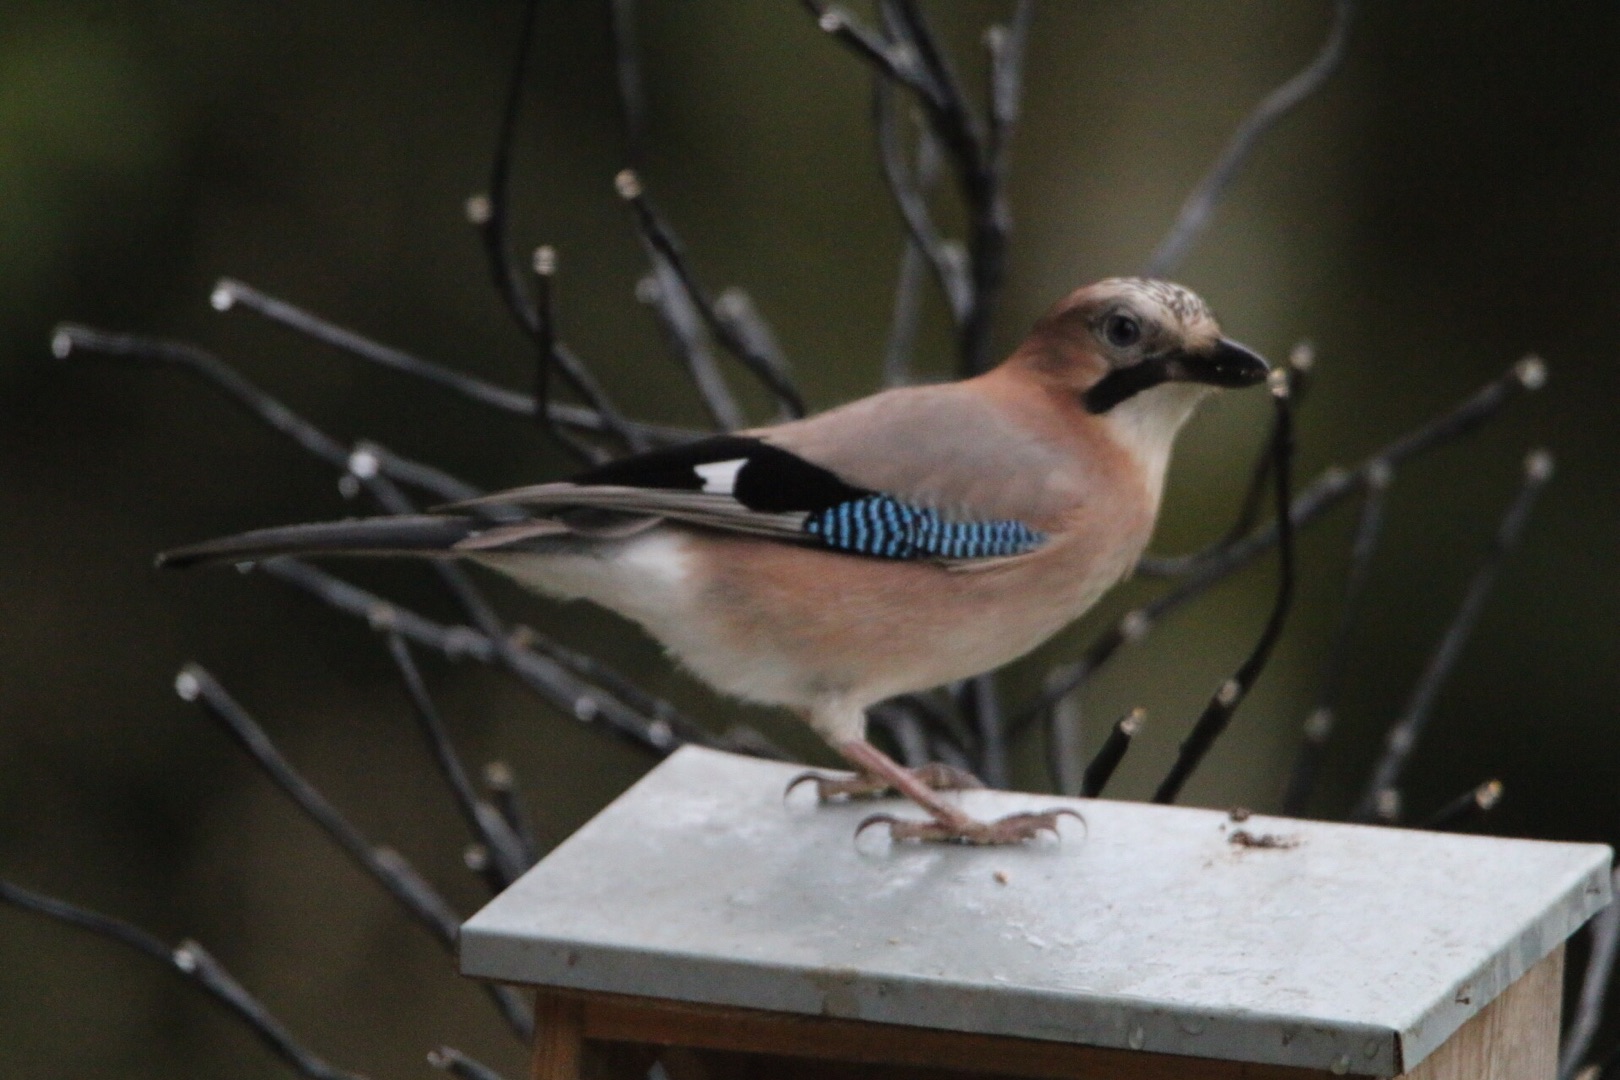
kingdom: Animalia
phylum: Chordata
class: Aves
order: Passeriformes
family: Corvidae
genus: Garrulus
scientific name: Garrulus glandarius
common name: Skovskade
